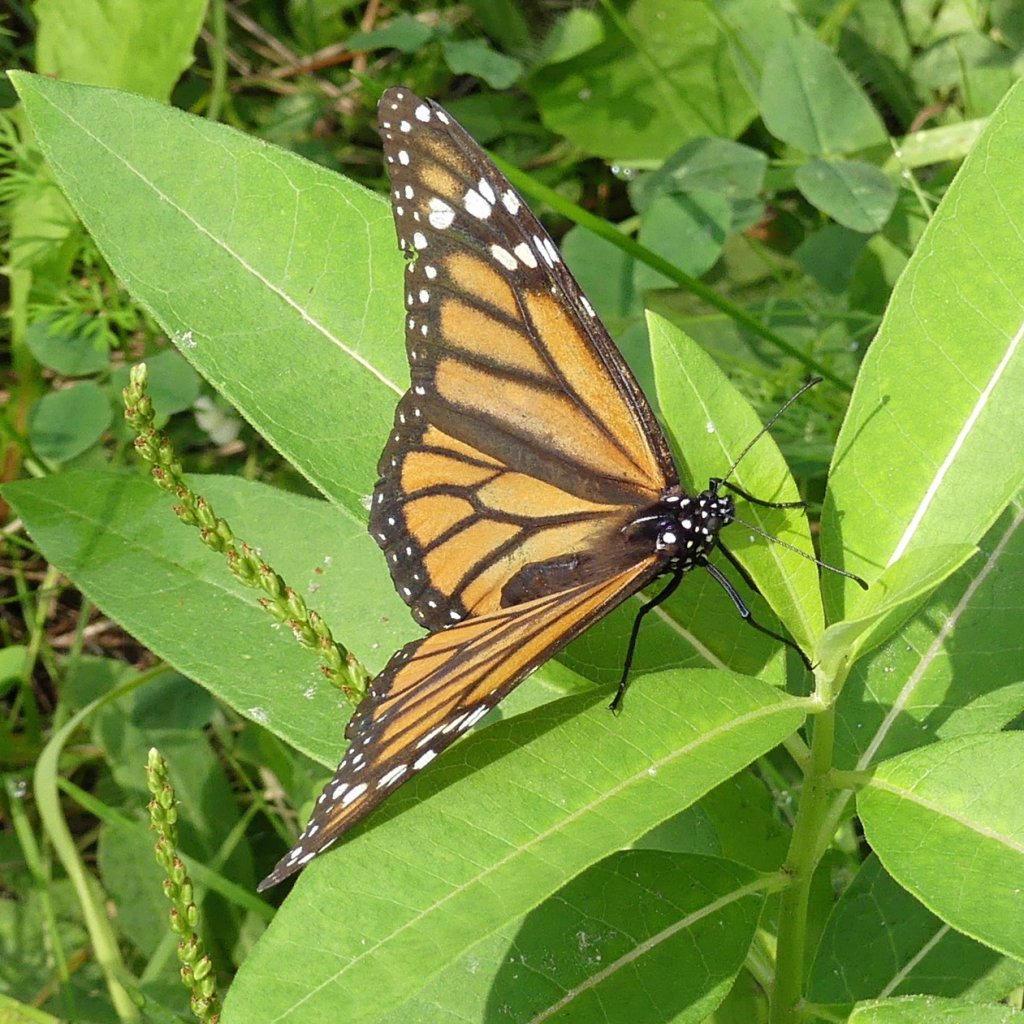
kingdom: Animalia
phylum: Arthropoda
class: Insecta
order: Lepidoptera
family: Nymphalidae
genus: Danaus
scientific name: Danaus plexippus
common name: Monarch
